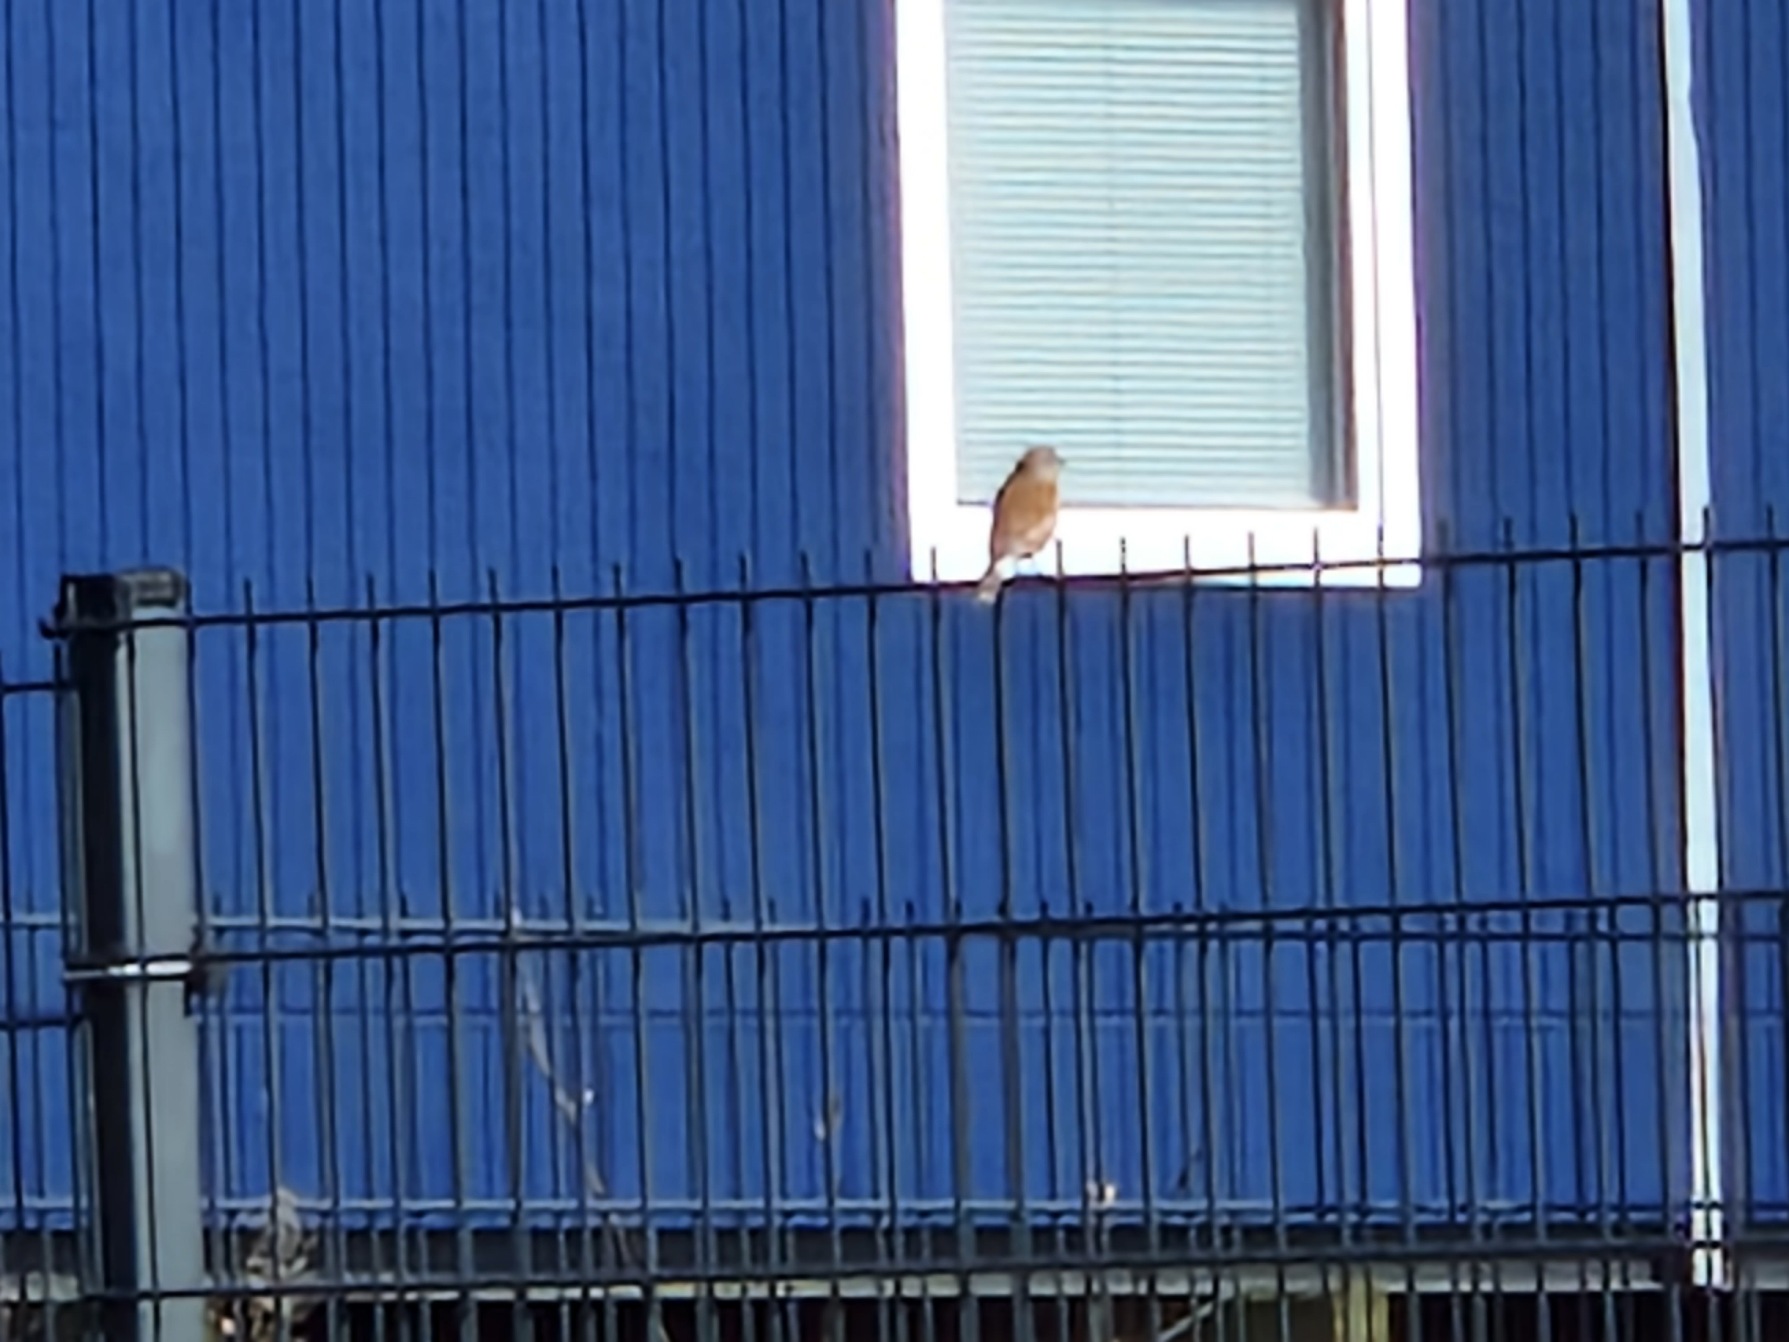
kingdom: Animalia
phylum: Chordata
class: Aves
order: Passeriformes
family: Fringillidae
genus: Linaria
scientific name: Linaria cannabina
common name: Tornirisk
